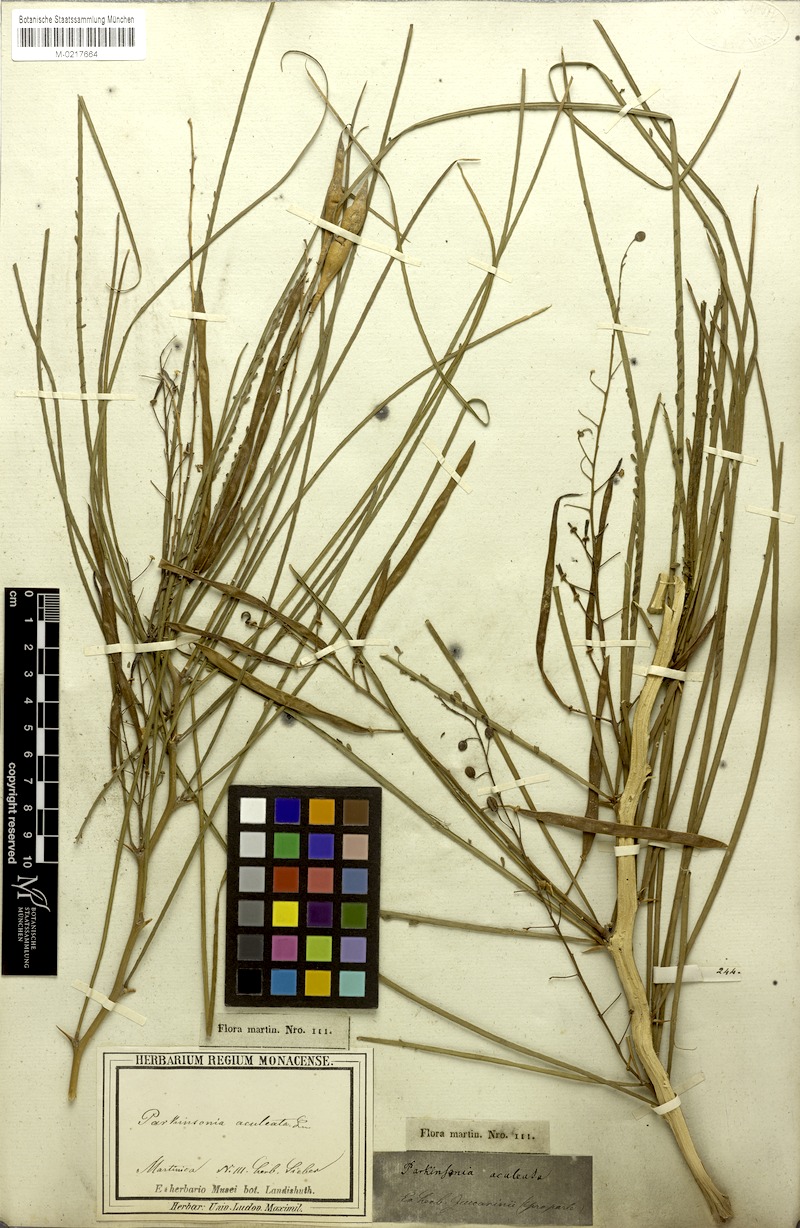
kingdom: Plantae
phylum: Tracheophyta
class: Magnoliopsida
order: Fabales
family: Fabaceae
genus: Parkinsonia
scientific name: Parkinsonia aculeata
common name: Jerusalem thorn
